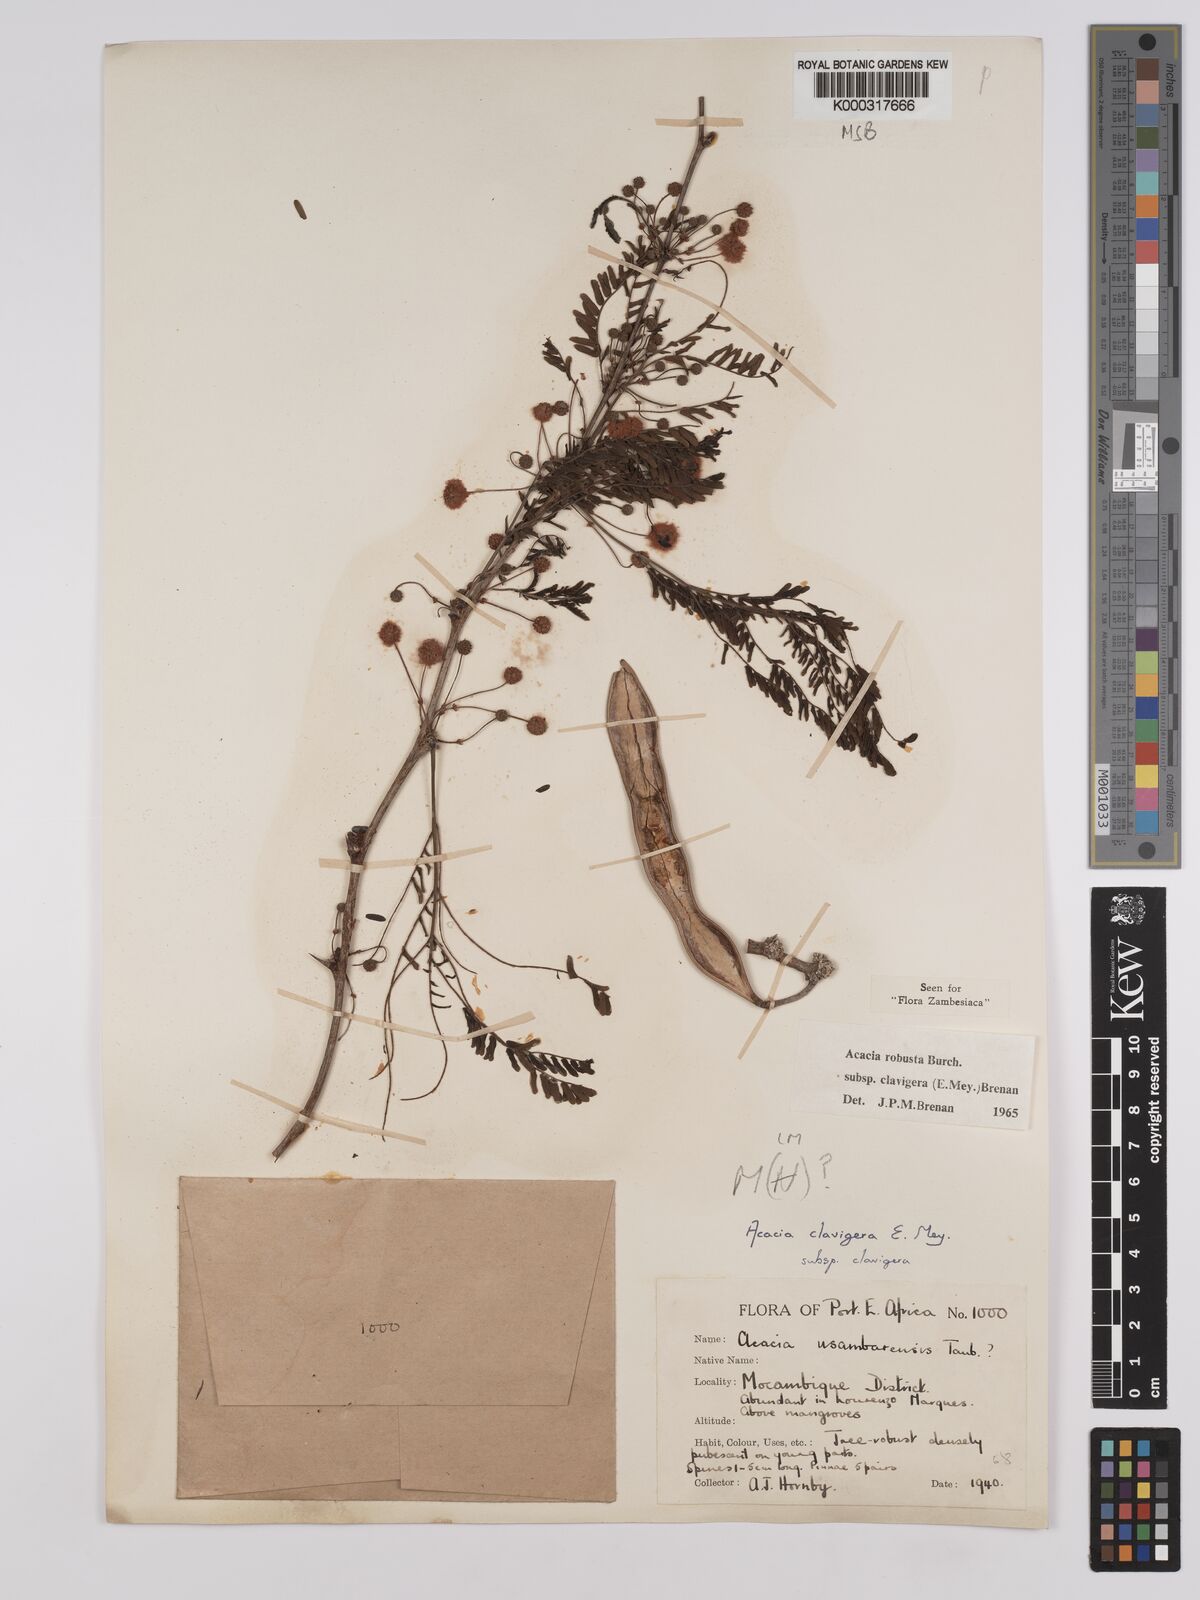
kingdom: Plantae
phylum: Tracheophyta
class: Magnoliopsida
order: Fabales
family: Fabaceae
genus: Vachellia
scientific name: Vachellia robusta
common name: Ankle thorn
